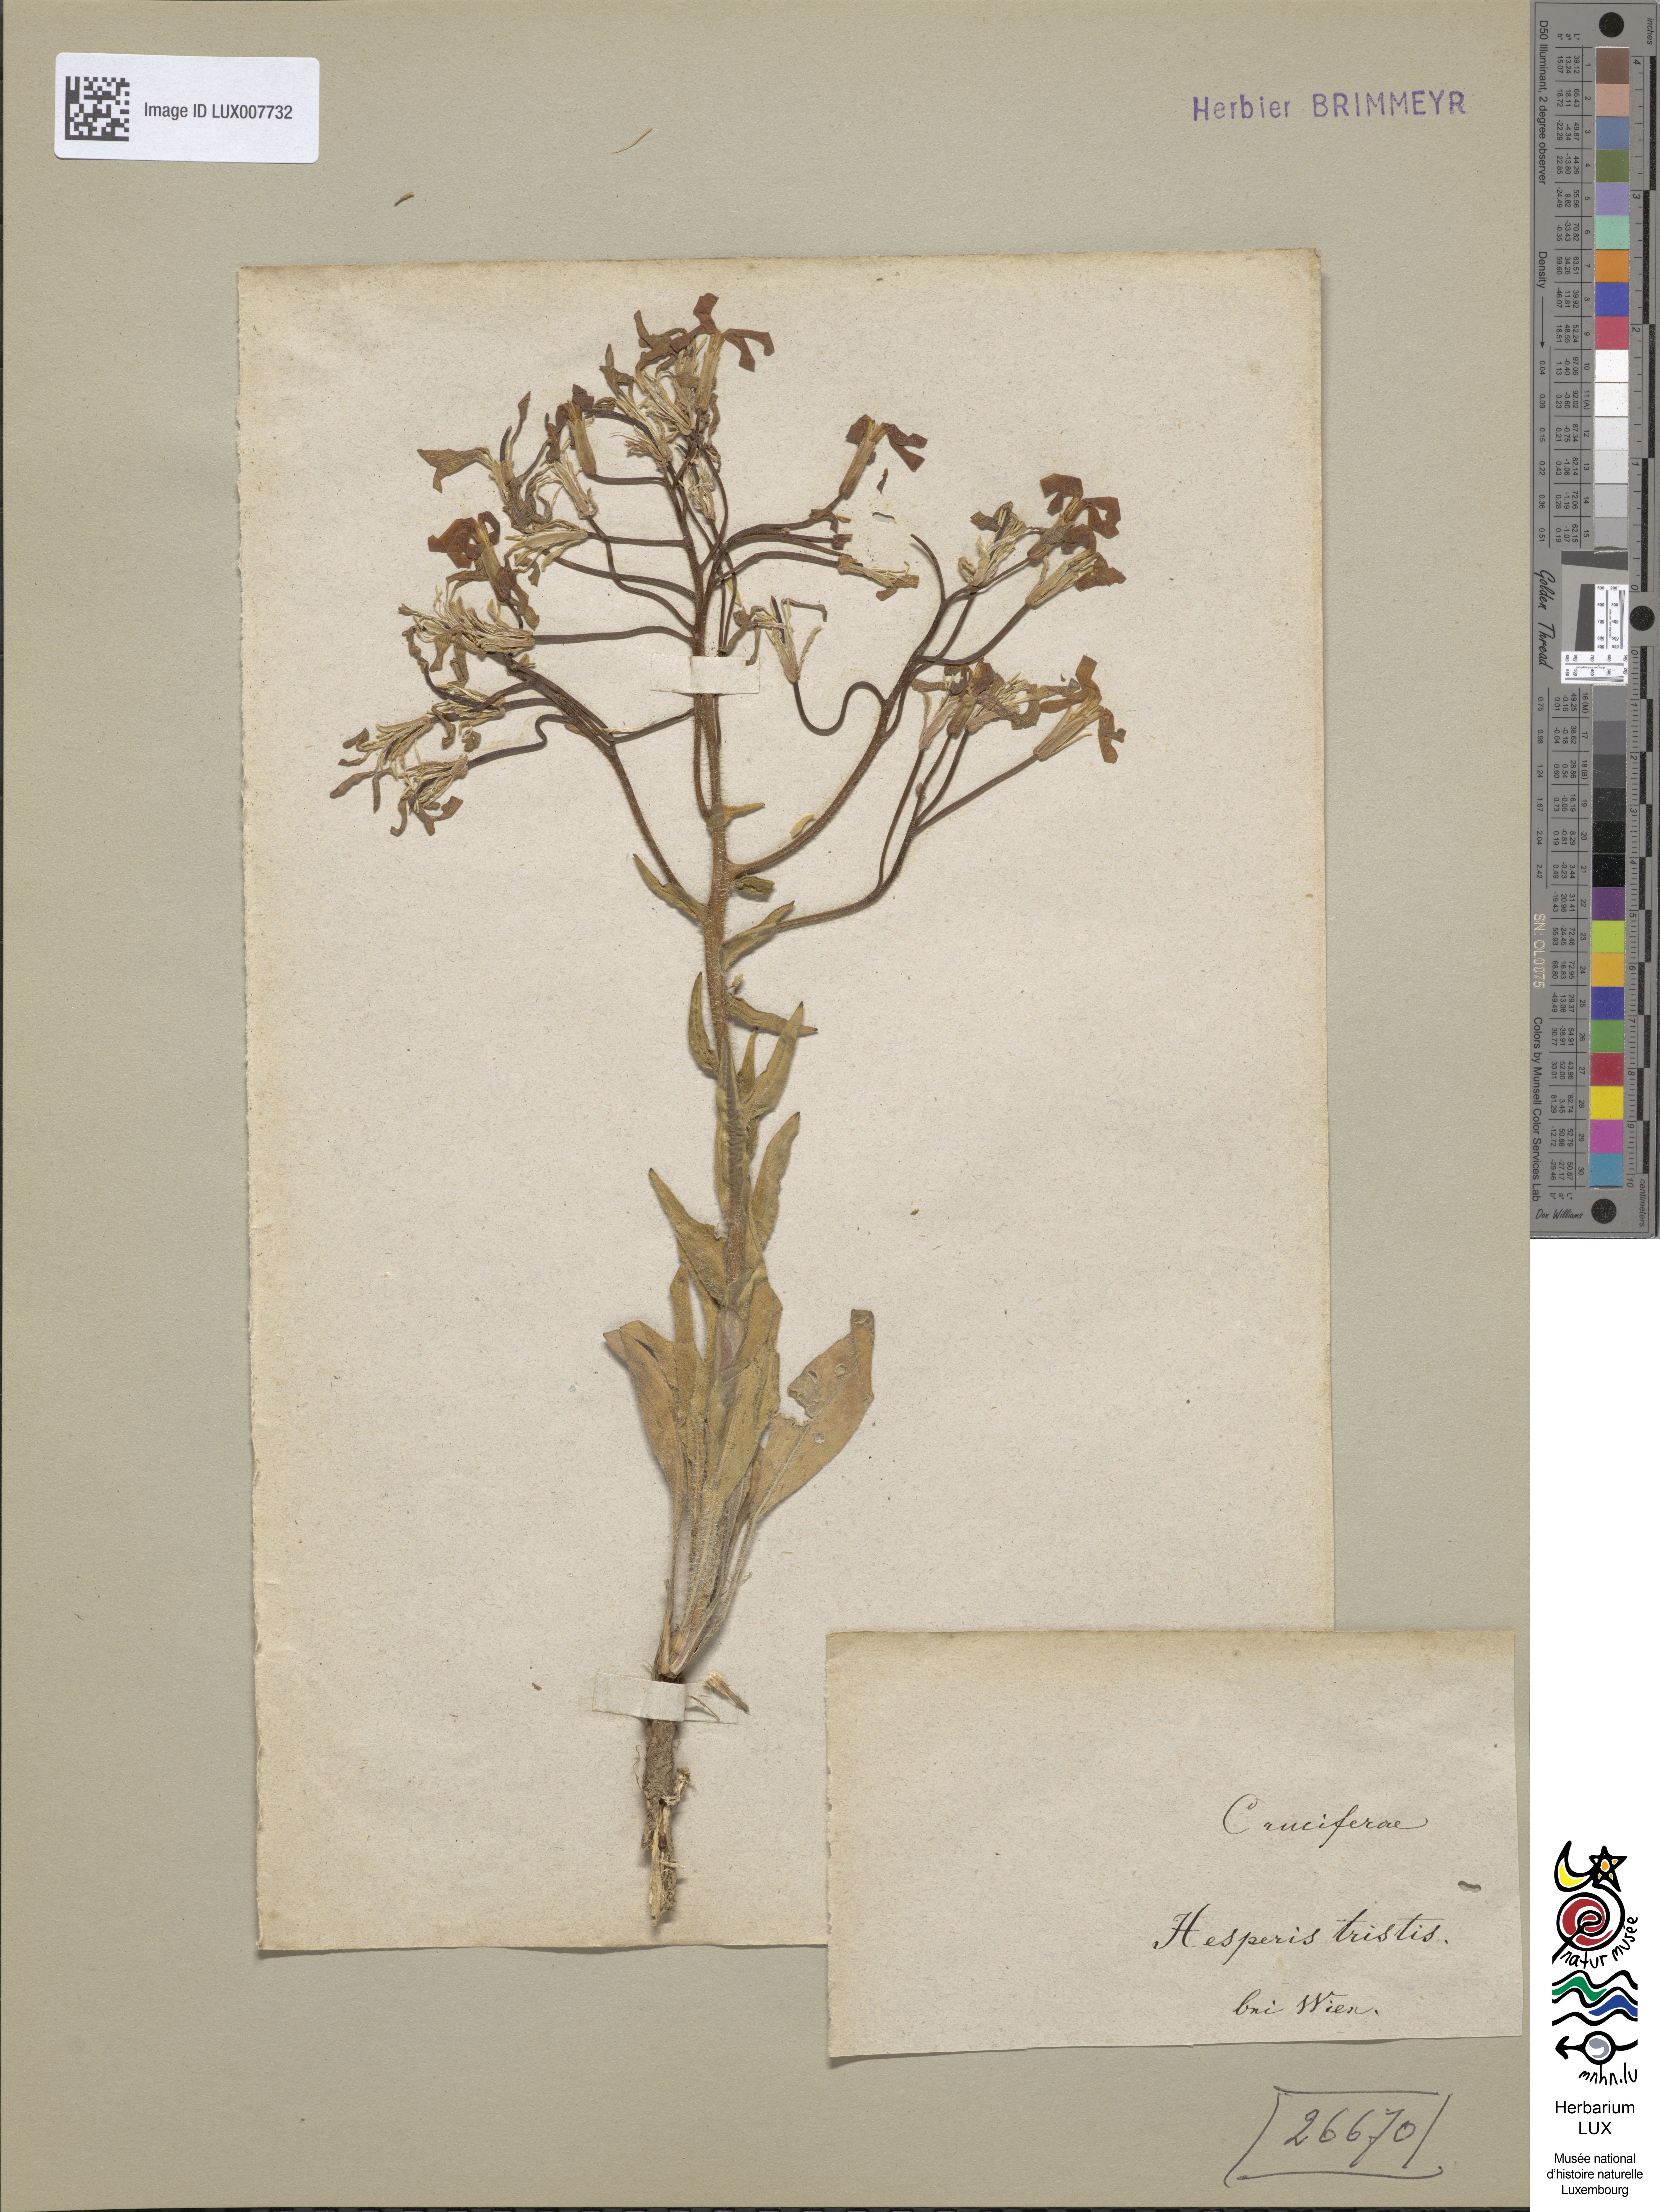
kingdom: Plantae
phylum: Tracheophyta
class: Magnoliopsida
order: Brassicales
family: Brassicaceae
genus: Hesperis
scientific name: Hesperis tristis
